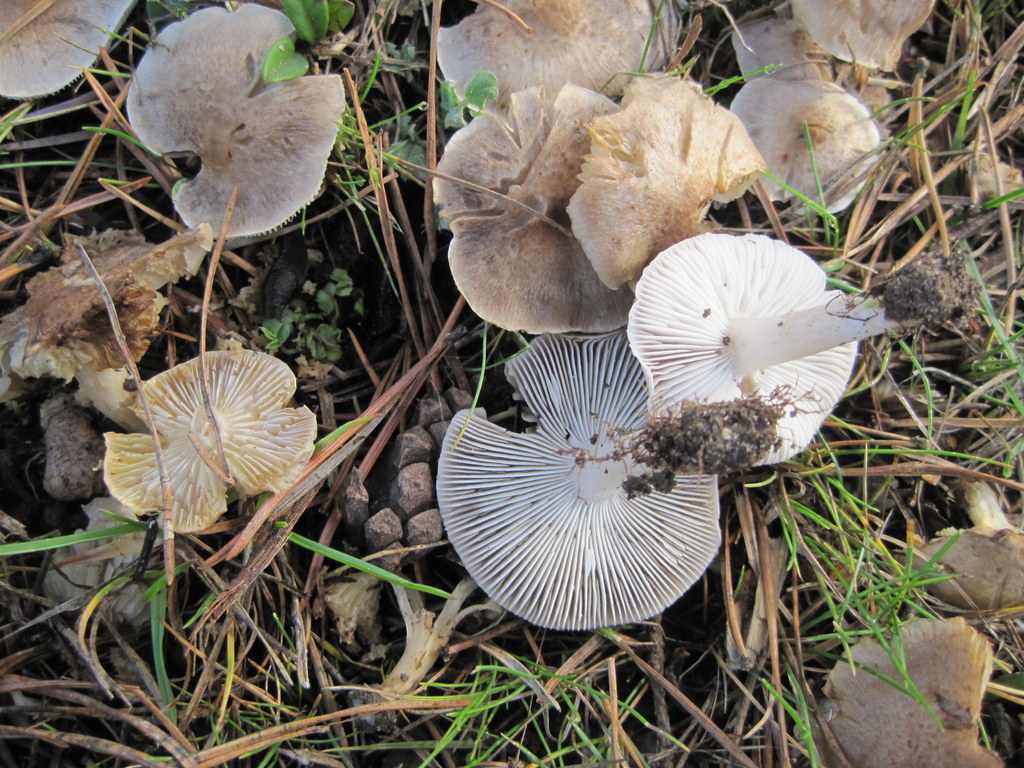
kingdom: Fungi
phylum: Basidiomycota
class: Agaricomycetes
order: Agaricales
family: Tricholomataceae
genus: Tricholoma
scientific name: Tricholoma argyraceum
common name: slør-ridderhat
